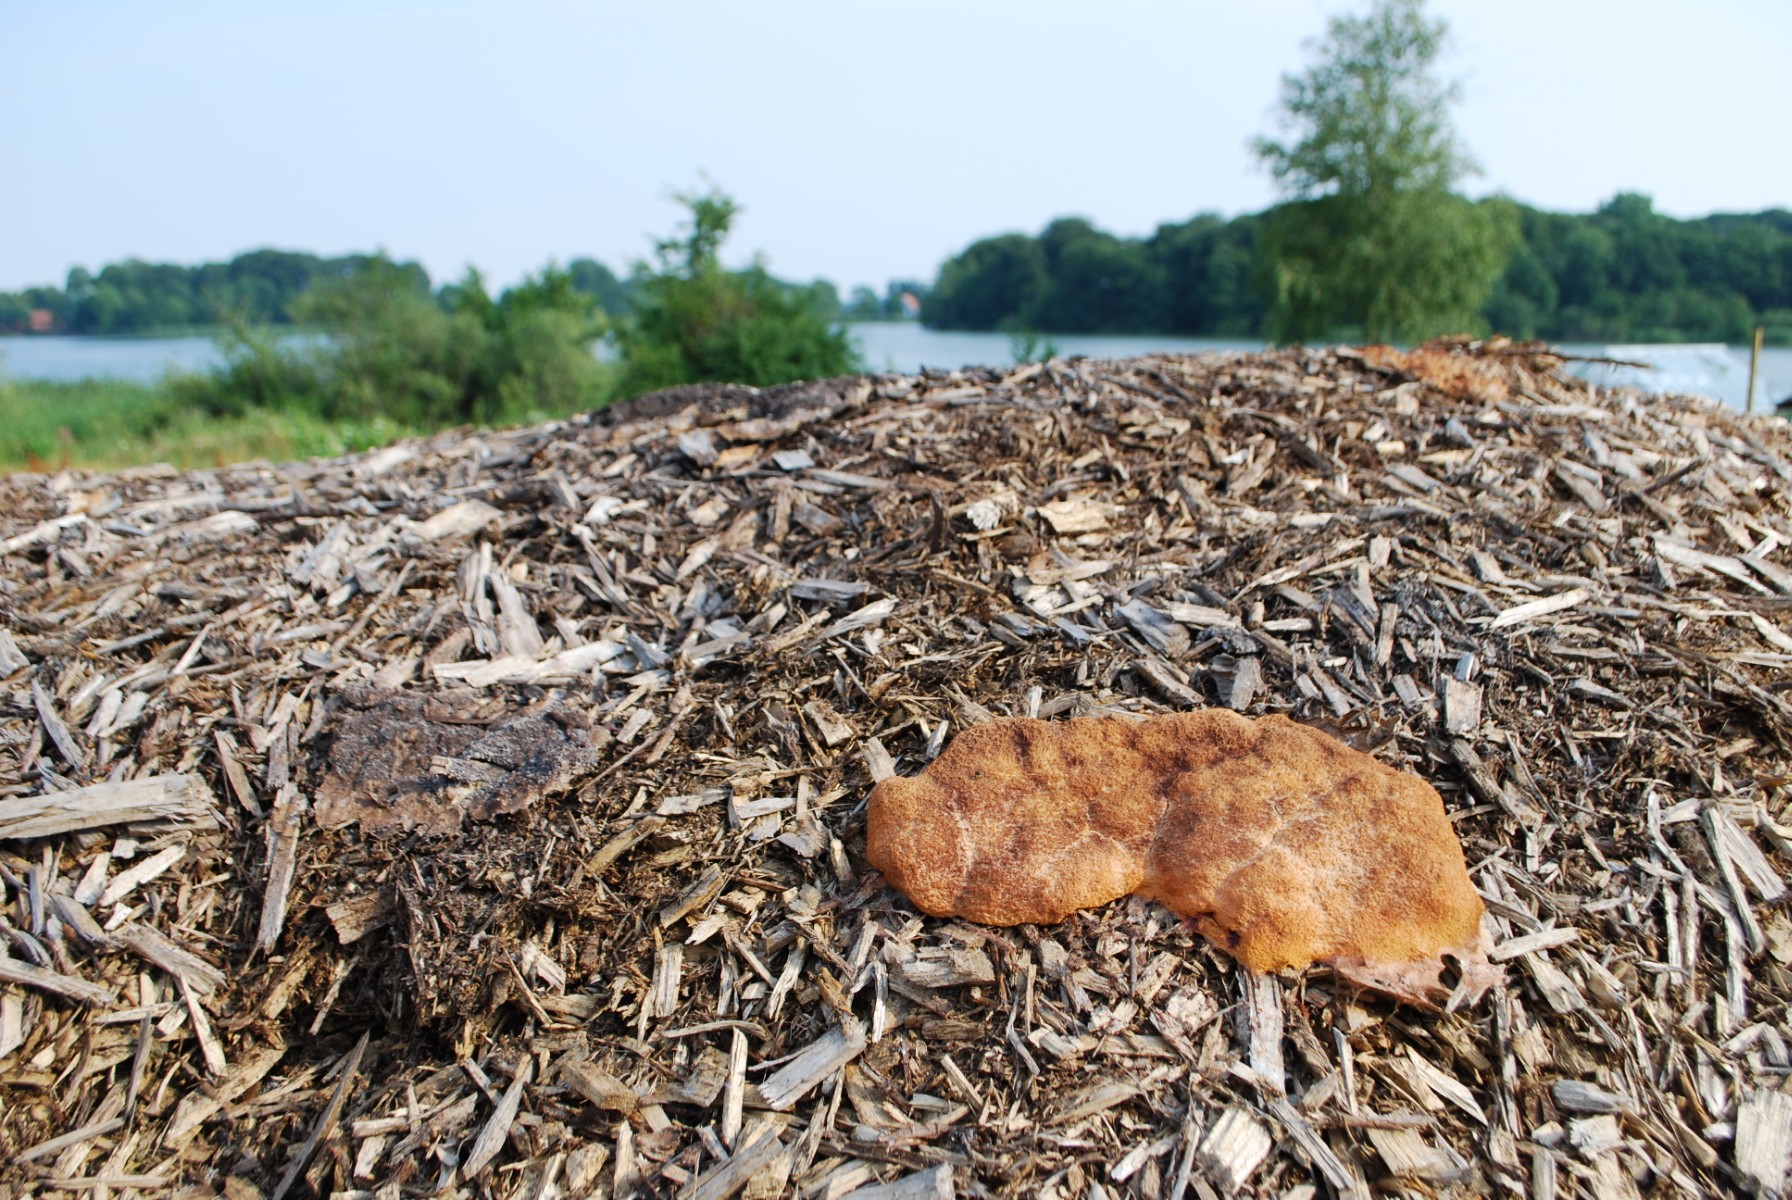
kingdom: Protozoa
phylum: Mycetozoa
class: Myxomycetes
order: Physarales
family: Physaraceae
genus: Fuligo
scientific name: Fuligo septica
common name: Dog vomit slime mold
